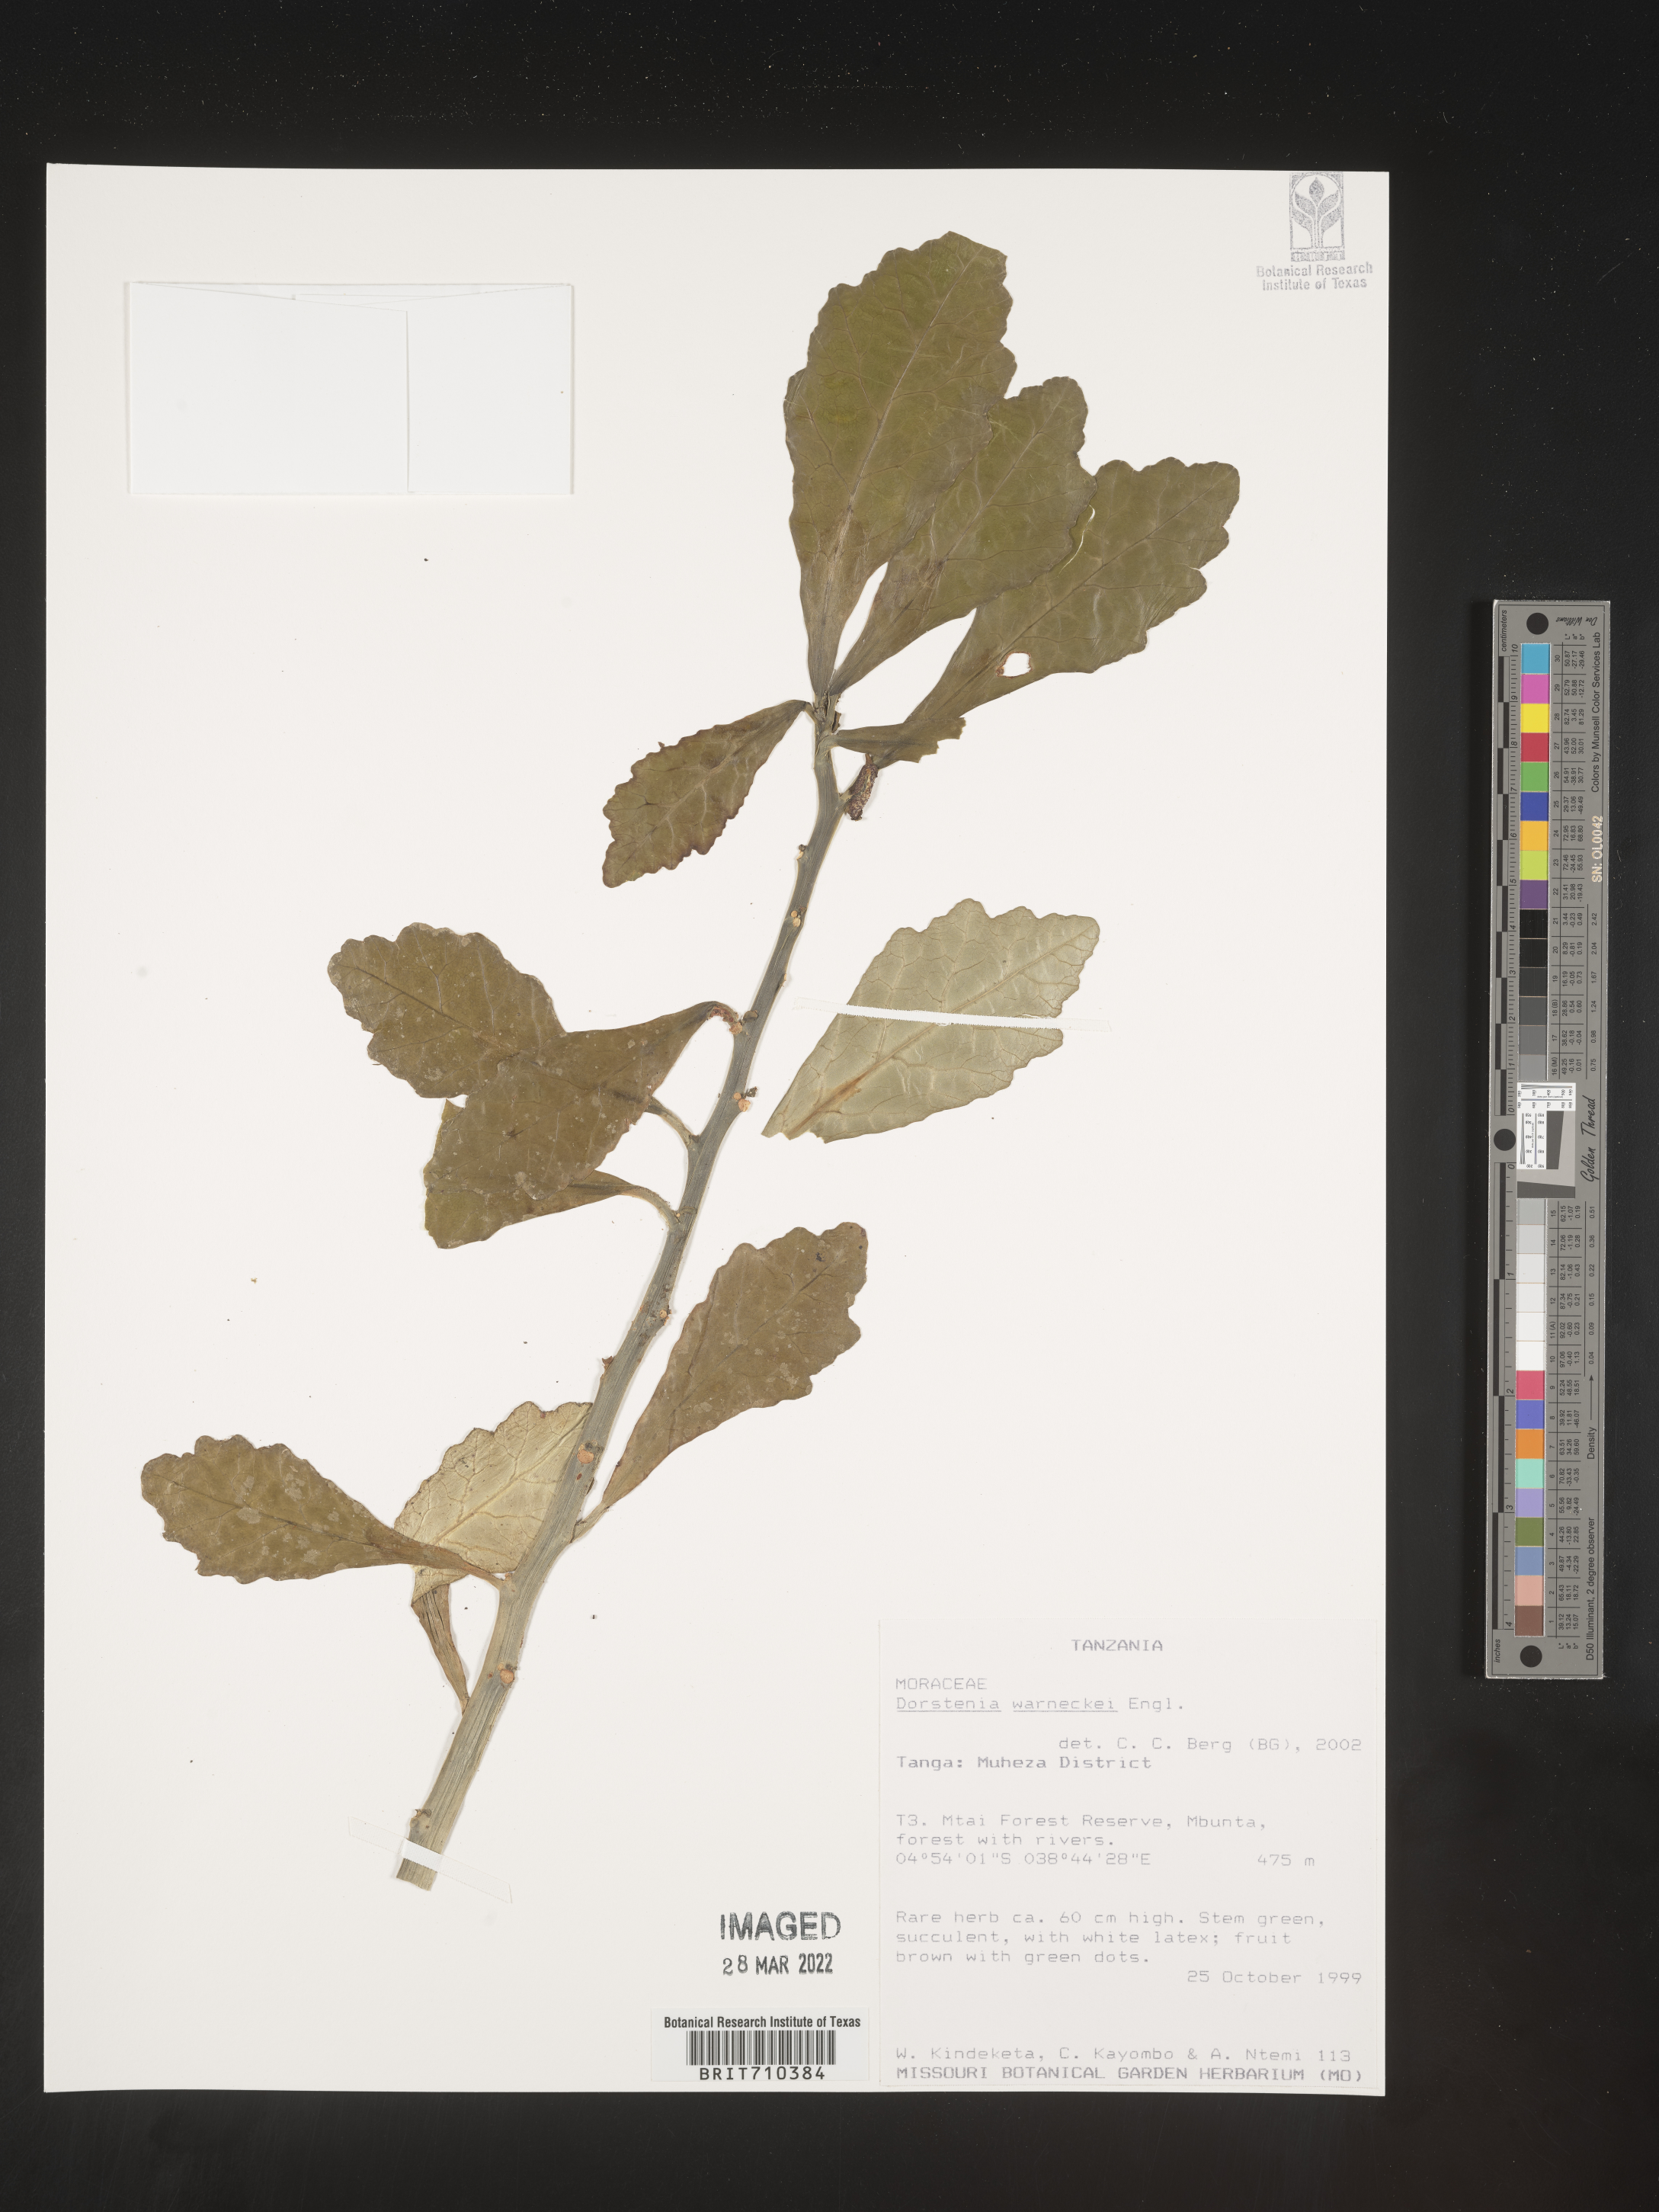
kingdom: Plantae
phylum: Tracheophyta
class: Magnoliopsida
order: Rosales
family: Moraceae
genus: Dorstenia
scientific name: Dorstenia
